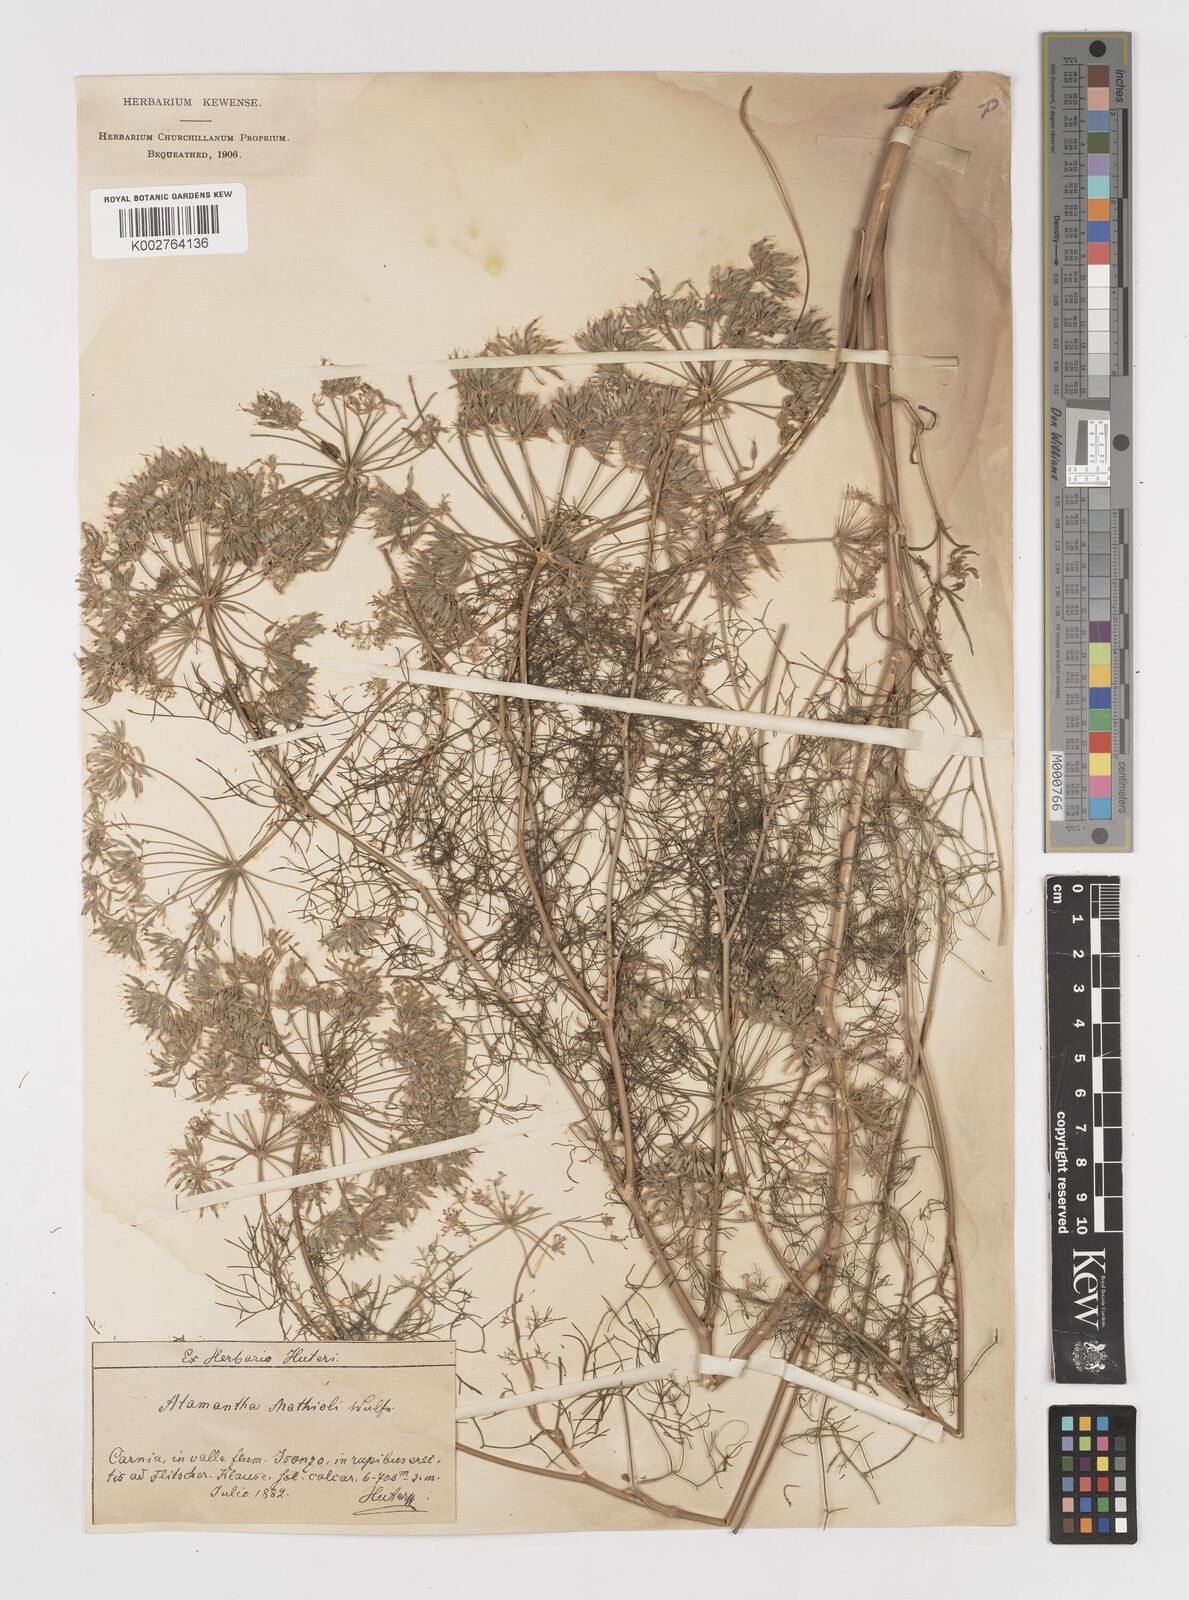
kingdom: Plantae
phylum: Tracheophyta
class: Magnoliopsida
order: Apiales
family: Apiaceae
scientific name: Apiaceae
